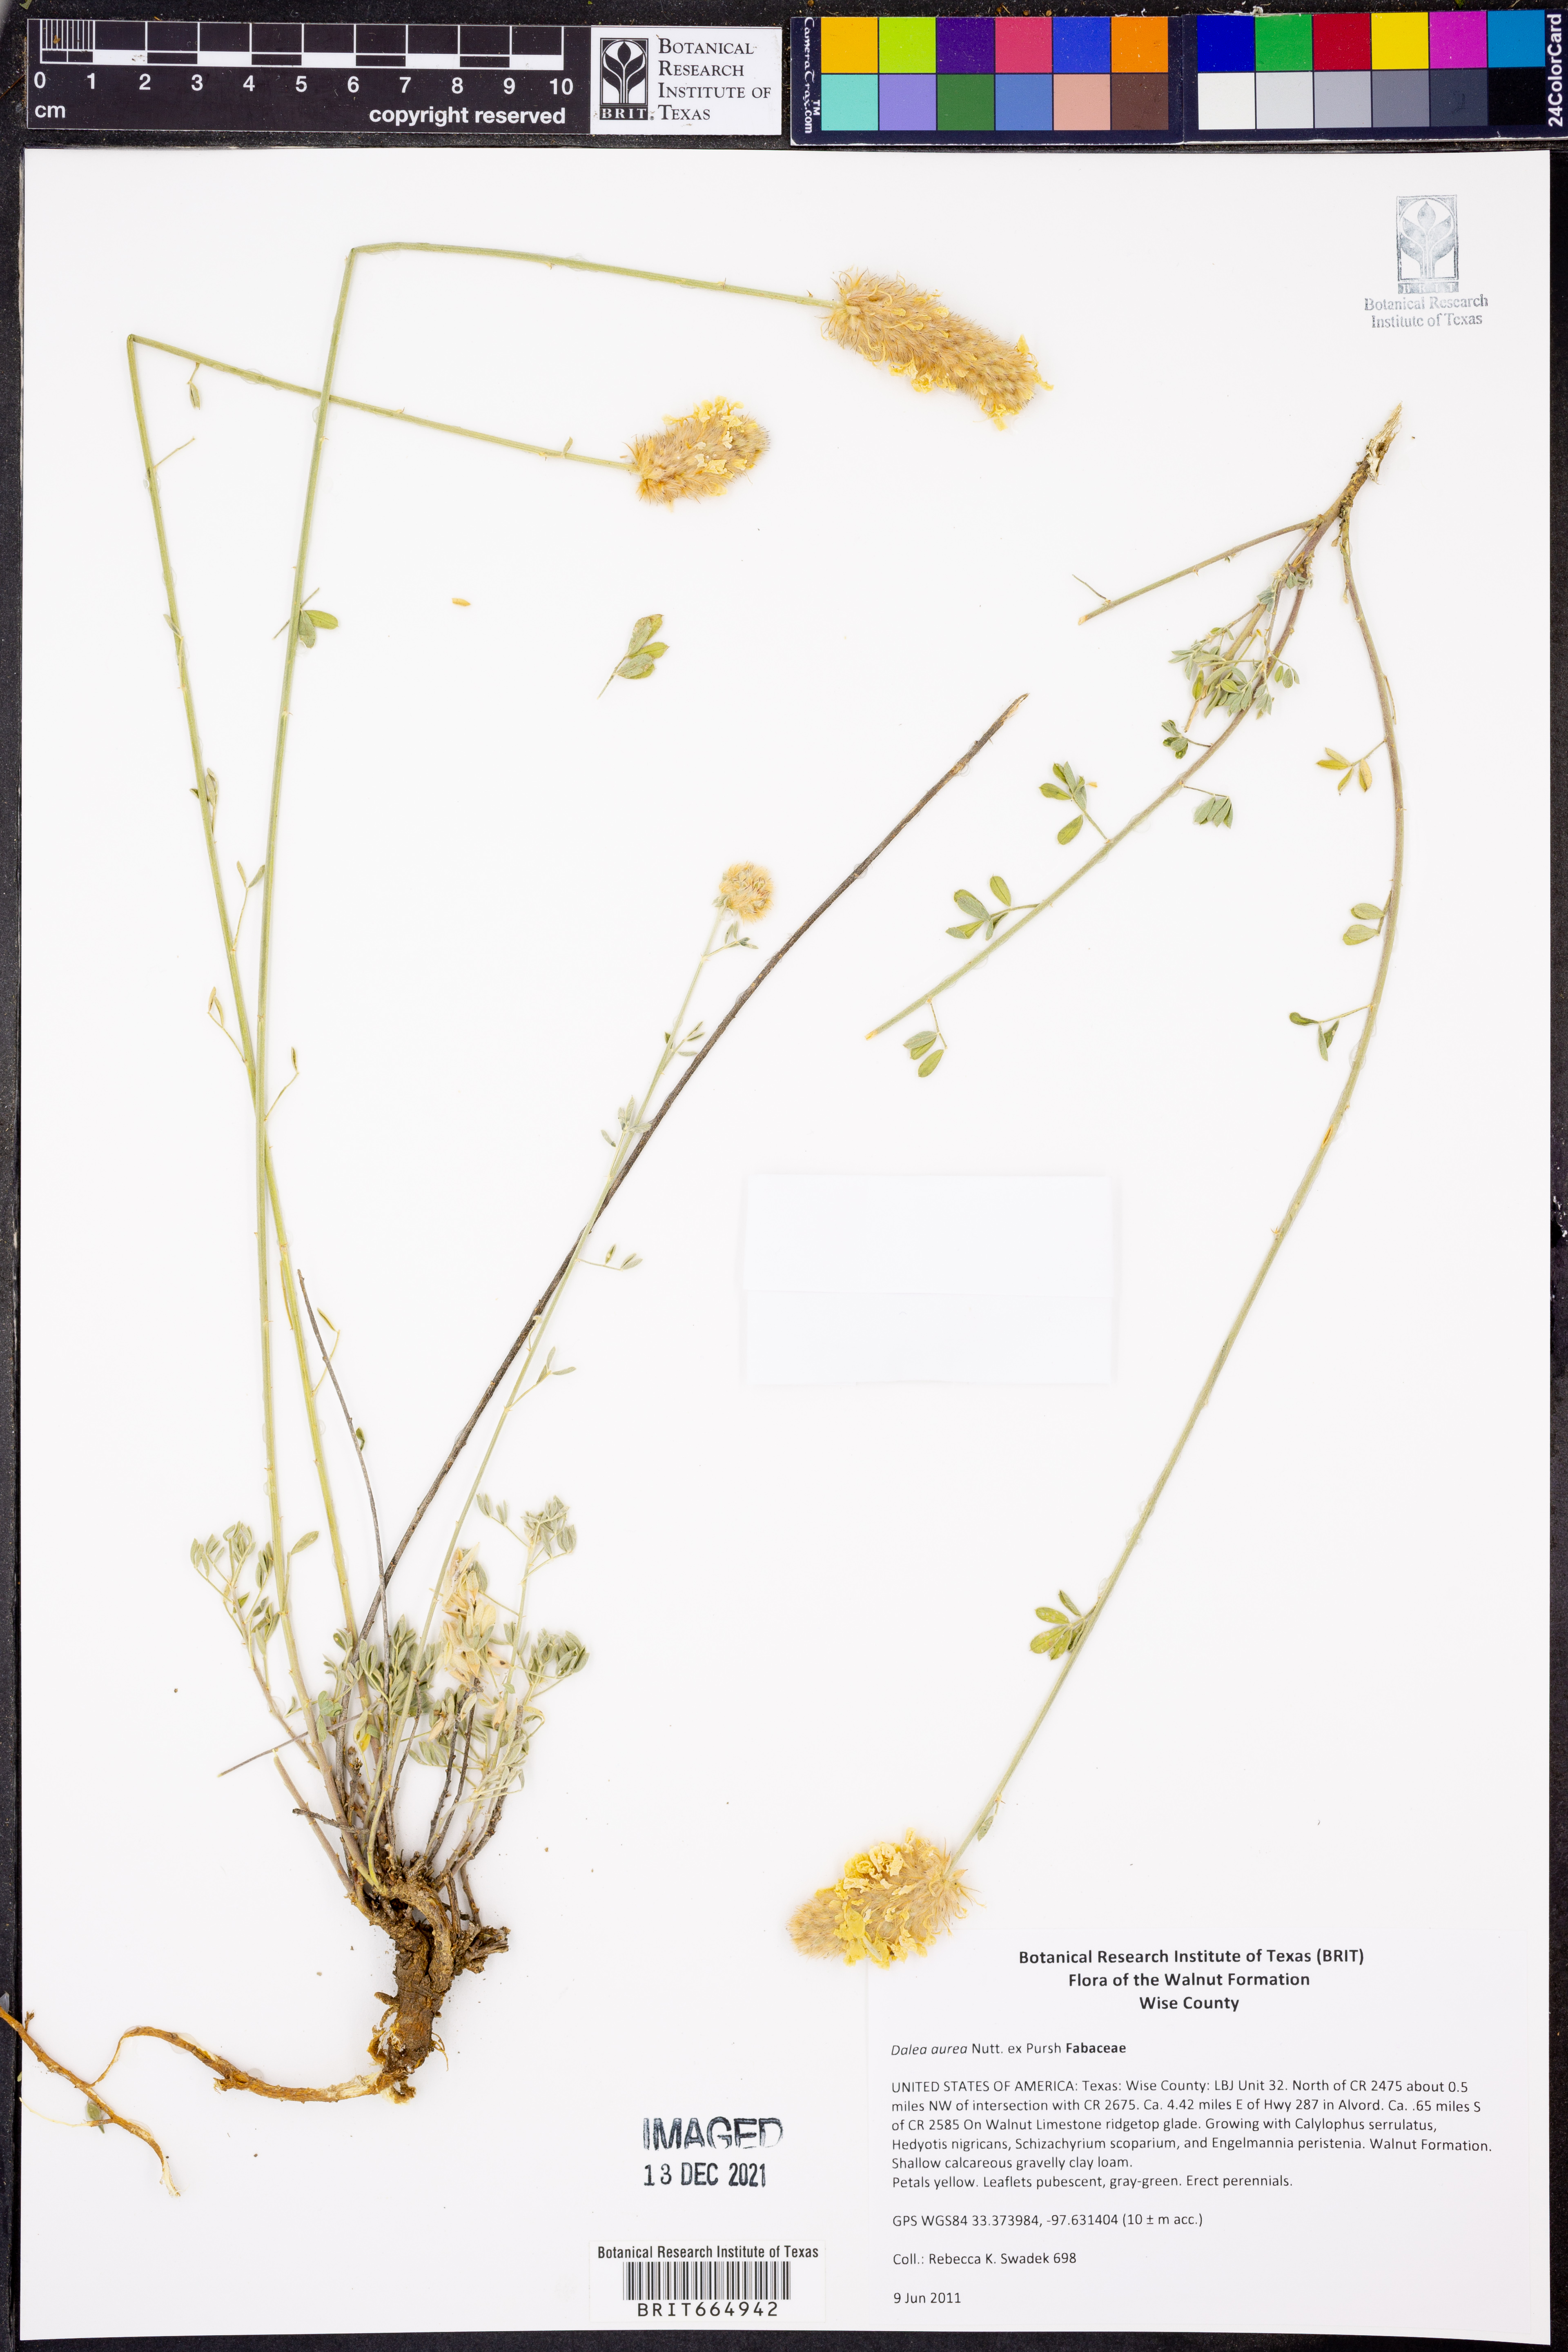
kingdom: Plantae
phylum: Tracheophyta
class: Magnoliopsida
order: Fabales
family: Fabaceae
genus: Dalea
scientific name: Dalea aurea
